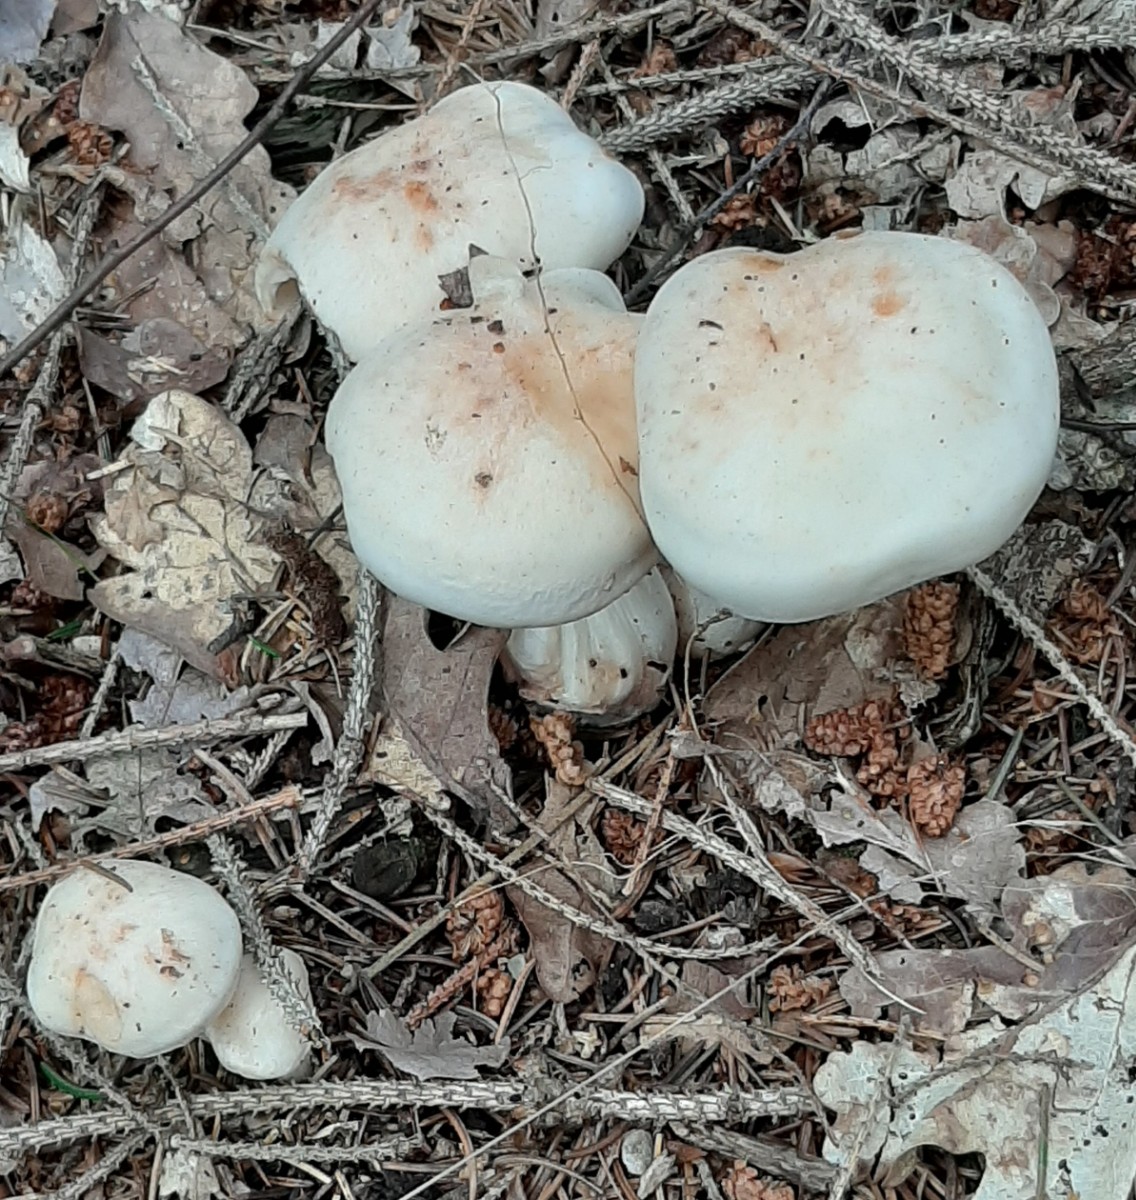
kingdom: Fungi
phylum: Basidiomycota
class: Agaricomycetes
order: Agaricales
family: Omphalotaceae
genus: Rhodocollybia
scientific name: Rhodocollybia maculata
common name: plettet fladhat
